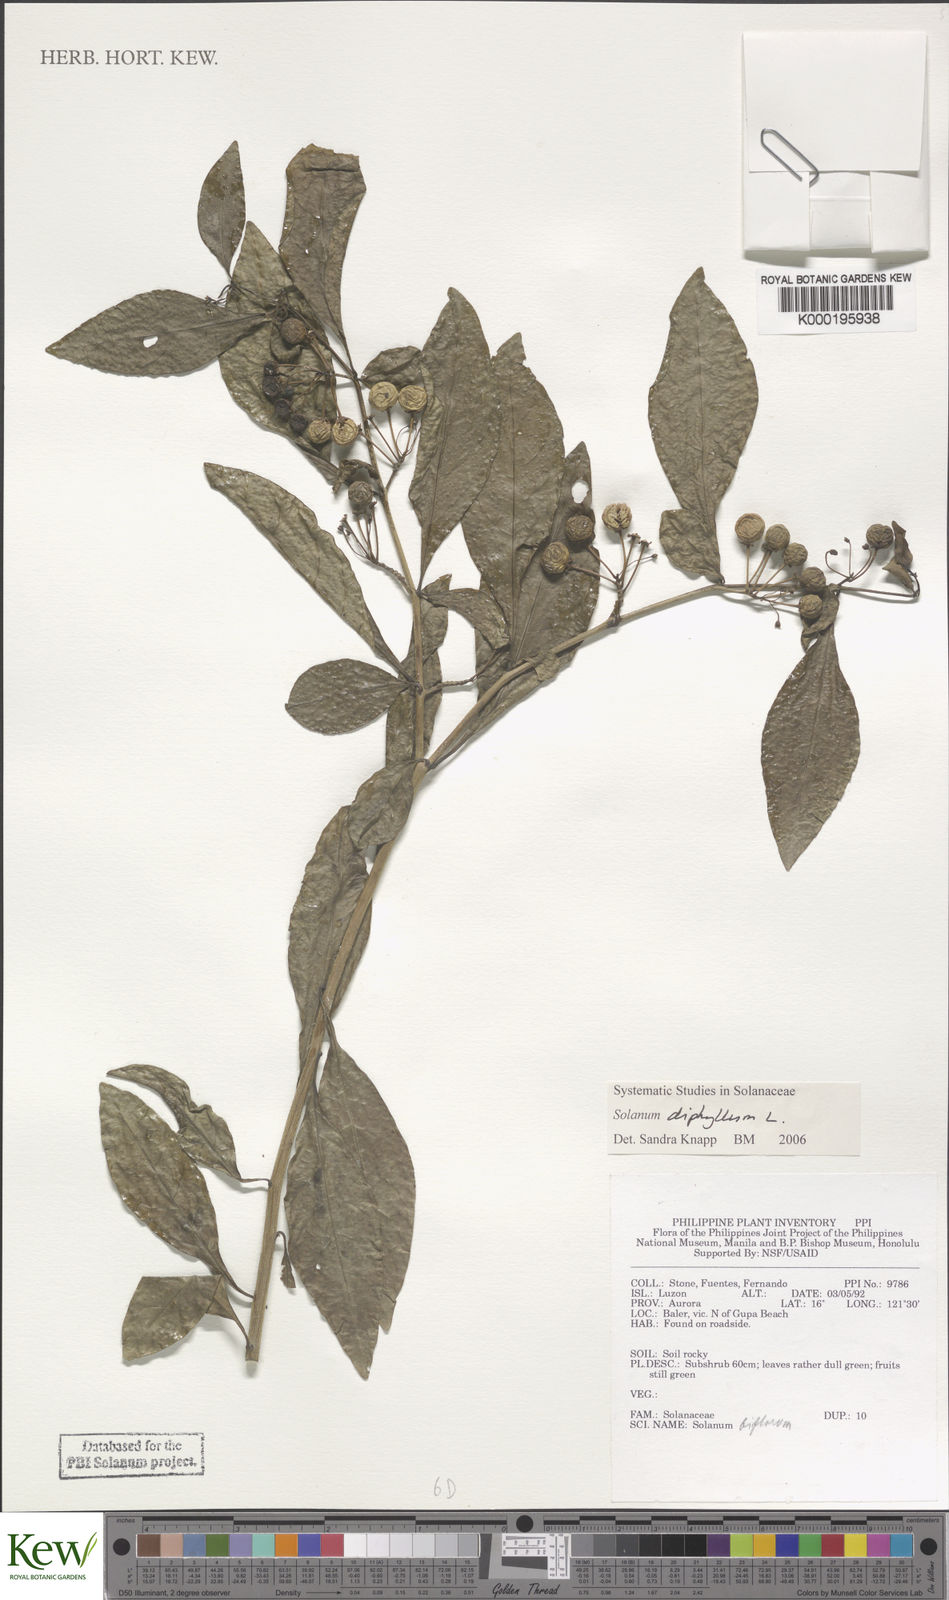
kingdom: Plantae
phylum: Tracheophyta
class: Magnoliopsida
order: Solanales
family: Solanaceae
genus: Solanum
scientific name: Solanum diphyllum
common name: Twoleaf nightshade
